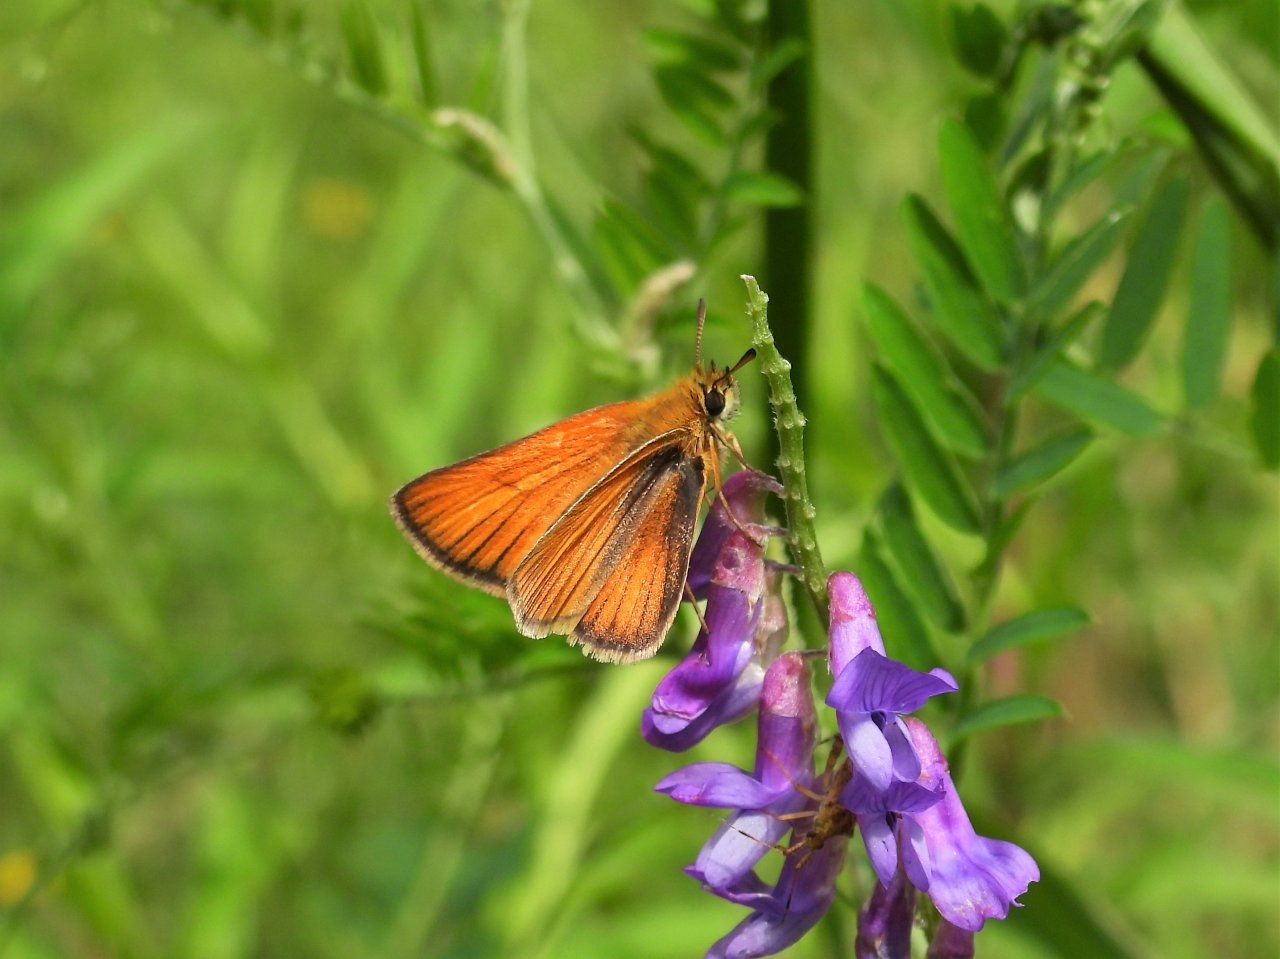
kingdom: Animalia
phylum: Arthropoda
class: Insecta
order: Lepidoptera
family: Hesperiidae
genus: Thymelicus
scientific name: Thymelicus lineola
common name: European Skipper
